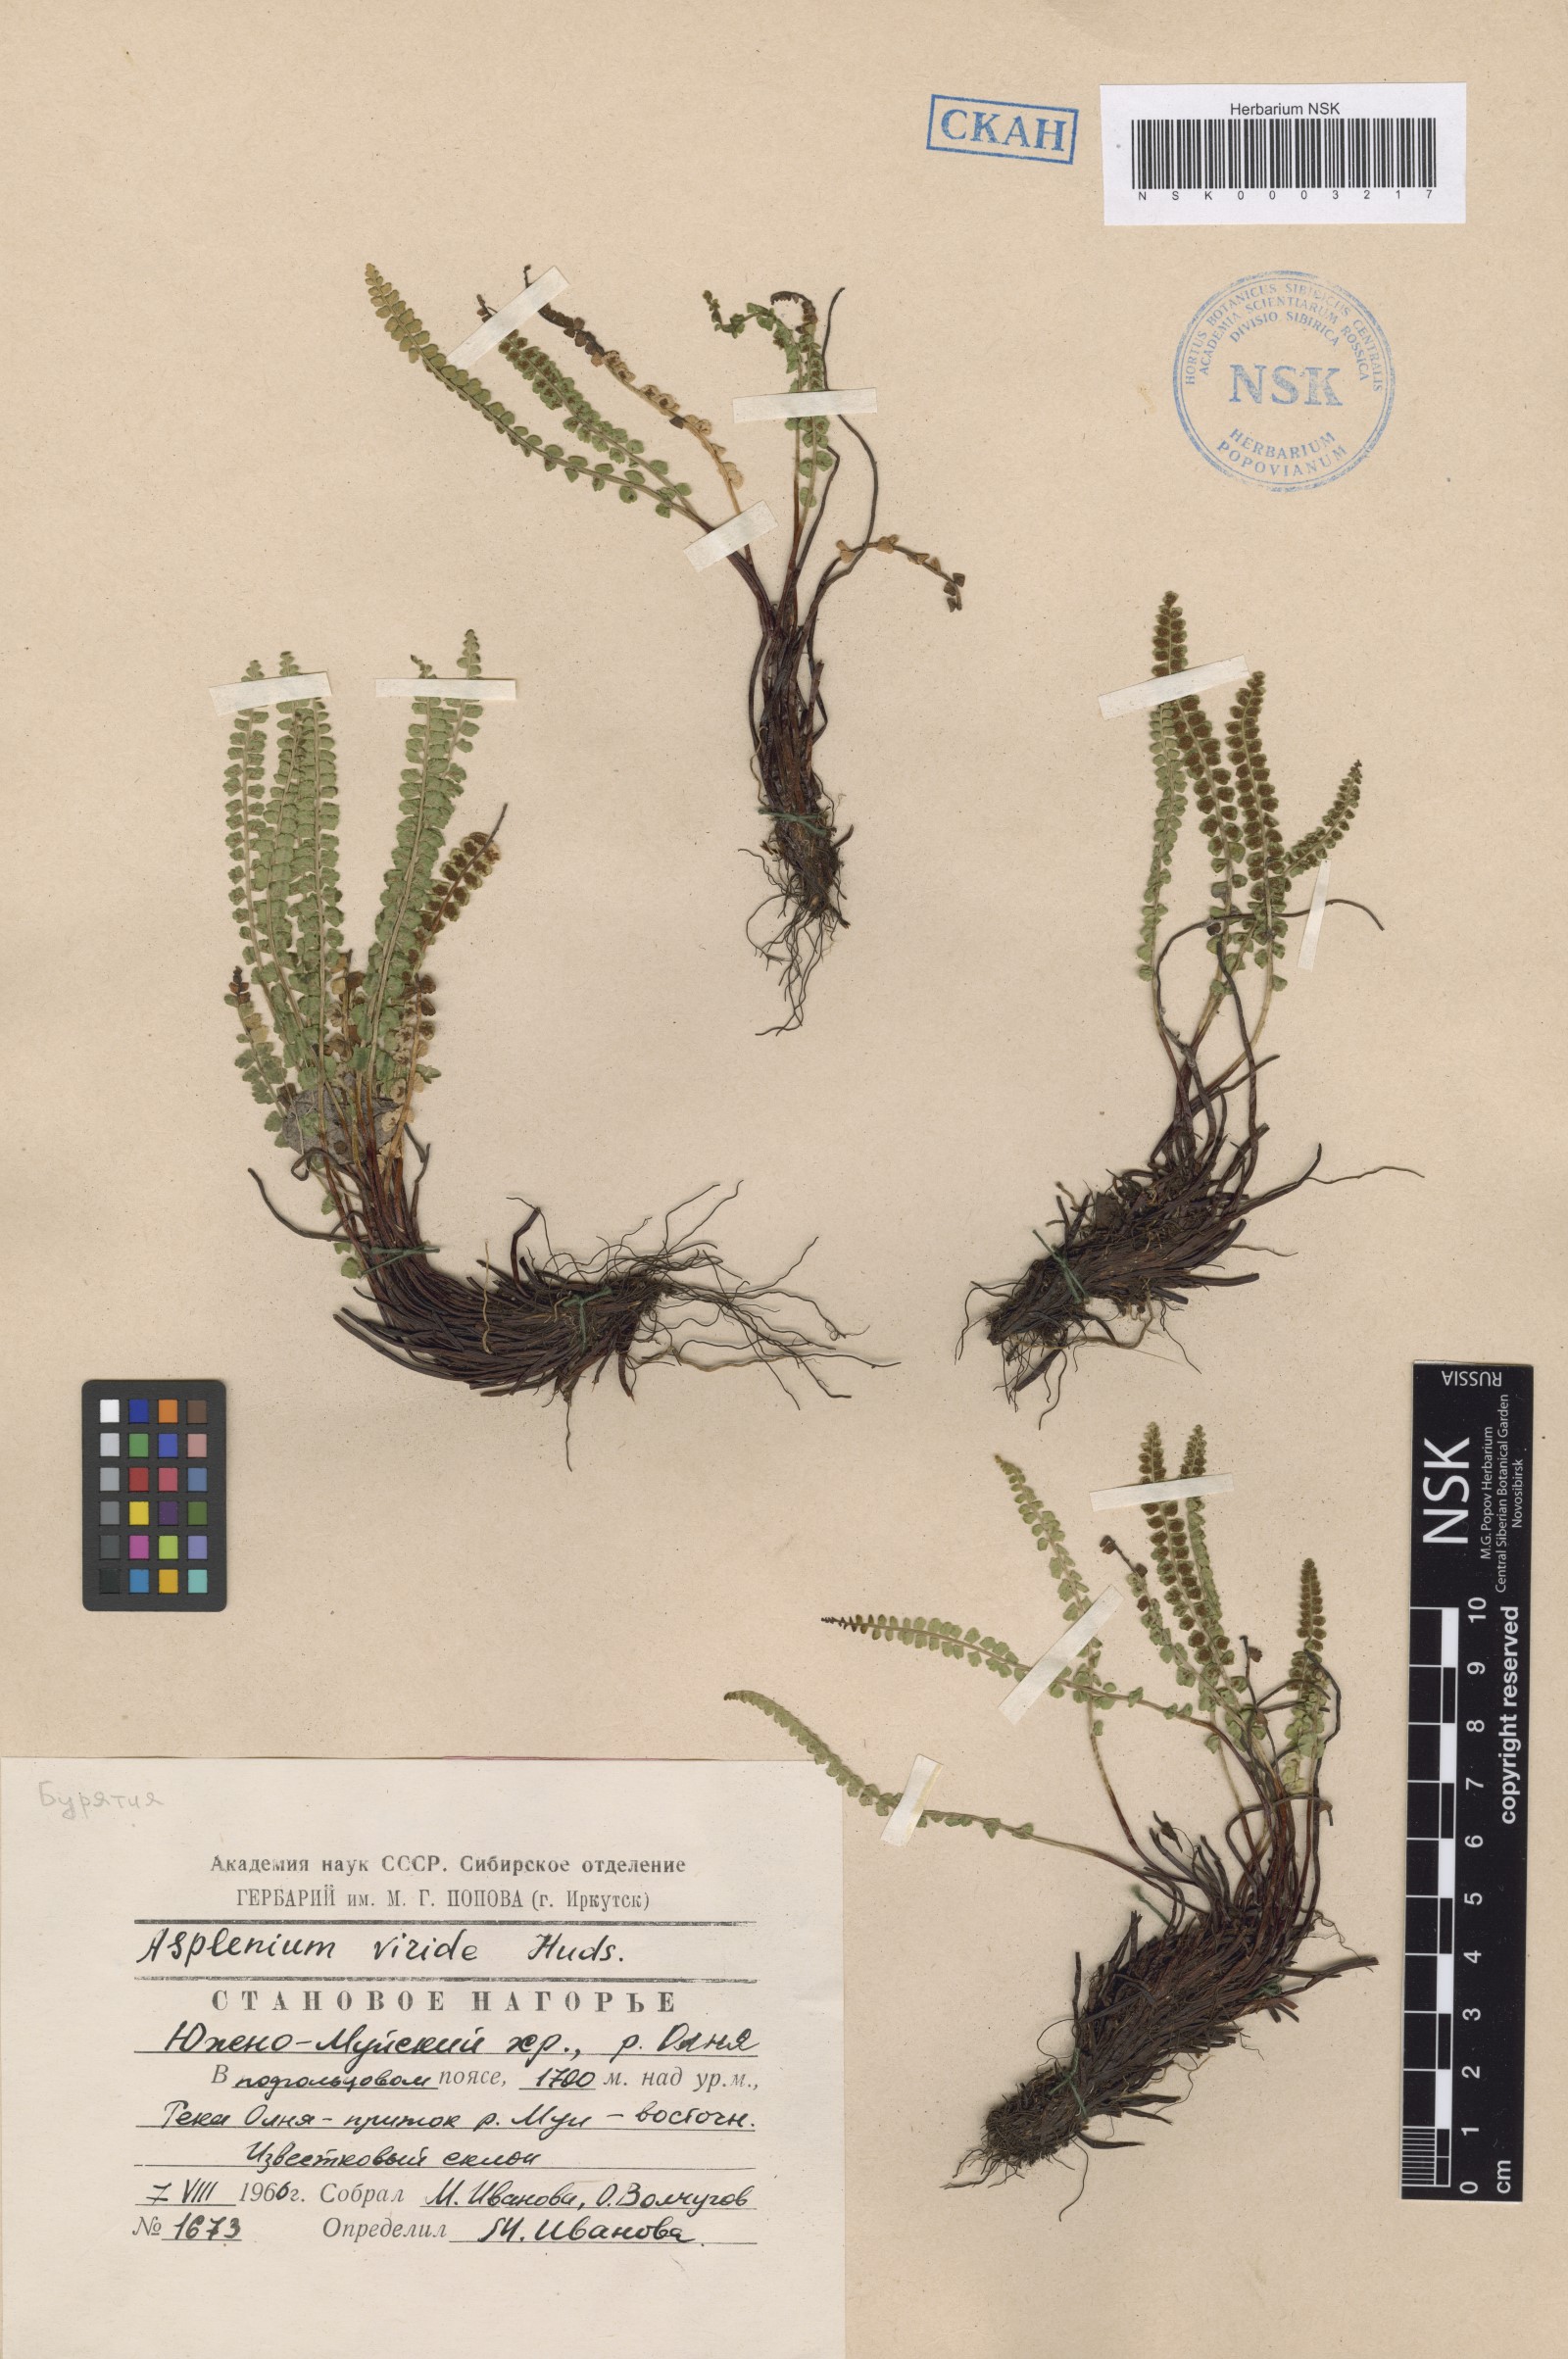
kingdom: Plantae
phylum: Tracheophyta
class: Polypodiopsida
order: Polypodiales
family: Aspleniaceae
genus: Asplenium
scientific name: Asplenium viride
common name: Green spleenwort
